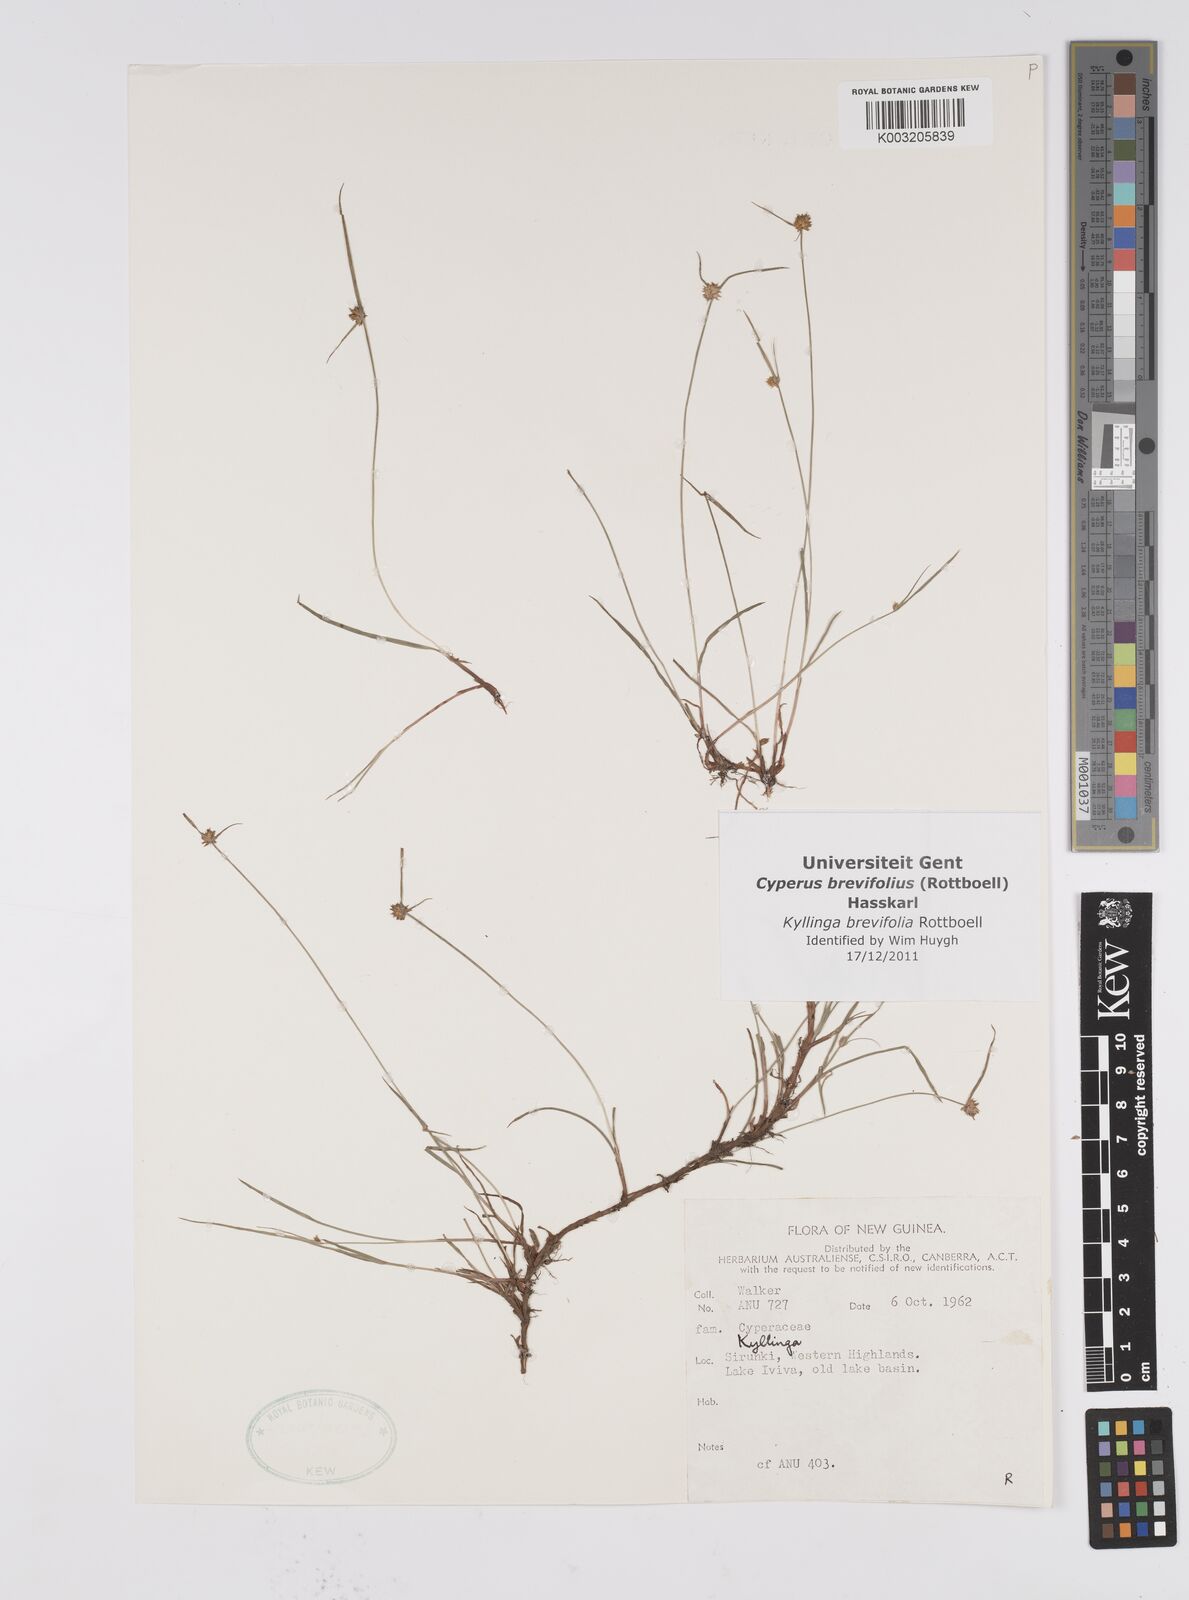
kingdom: Plantae
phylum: Tracheophyta
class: Liliopsida
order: Poales
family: Cyperaceae
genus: Cyperus
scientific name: Cyperus brevifolius
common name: Globe kyllinga
